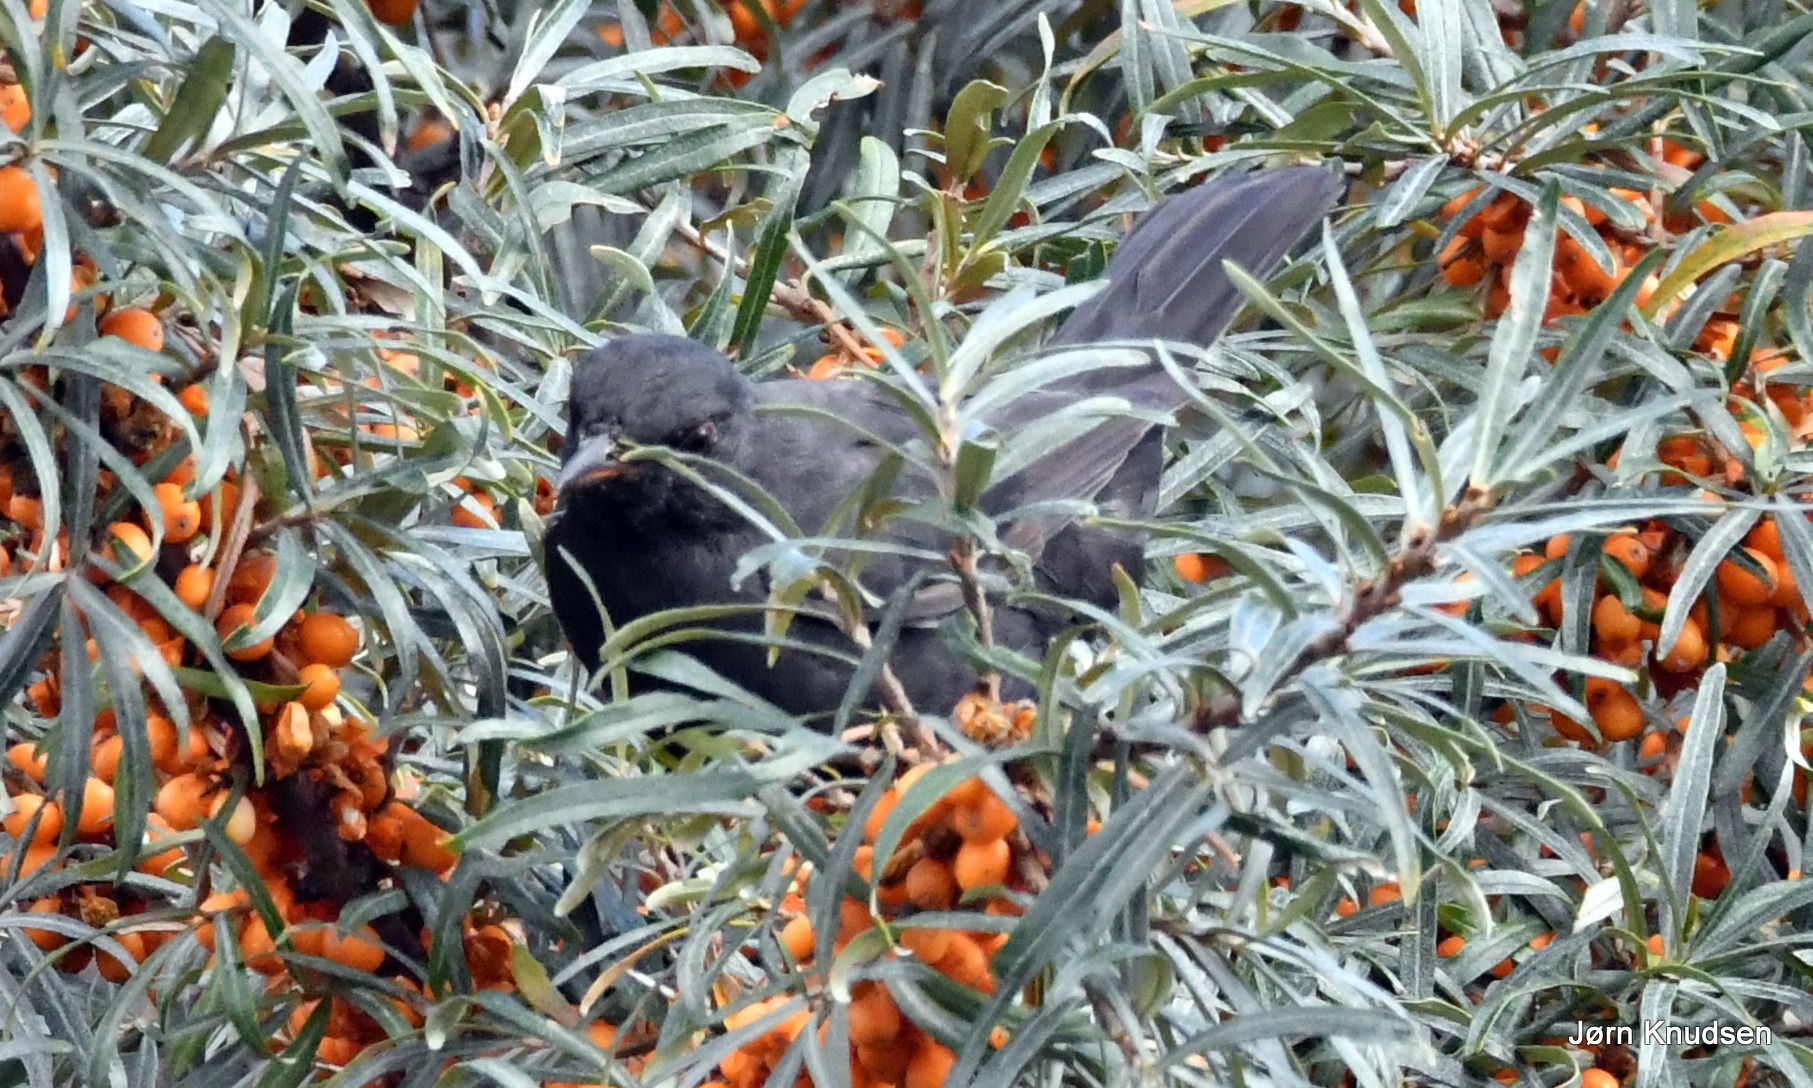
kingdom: Animalia
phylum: Chordata
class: Aves
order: Passeriformes
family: Turdidae
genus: Turdus
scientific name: Turdus merula
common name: Solsort
